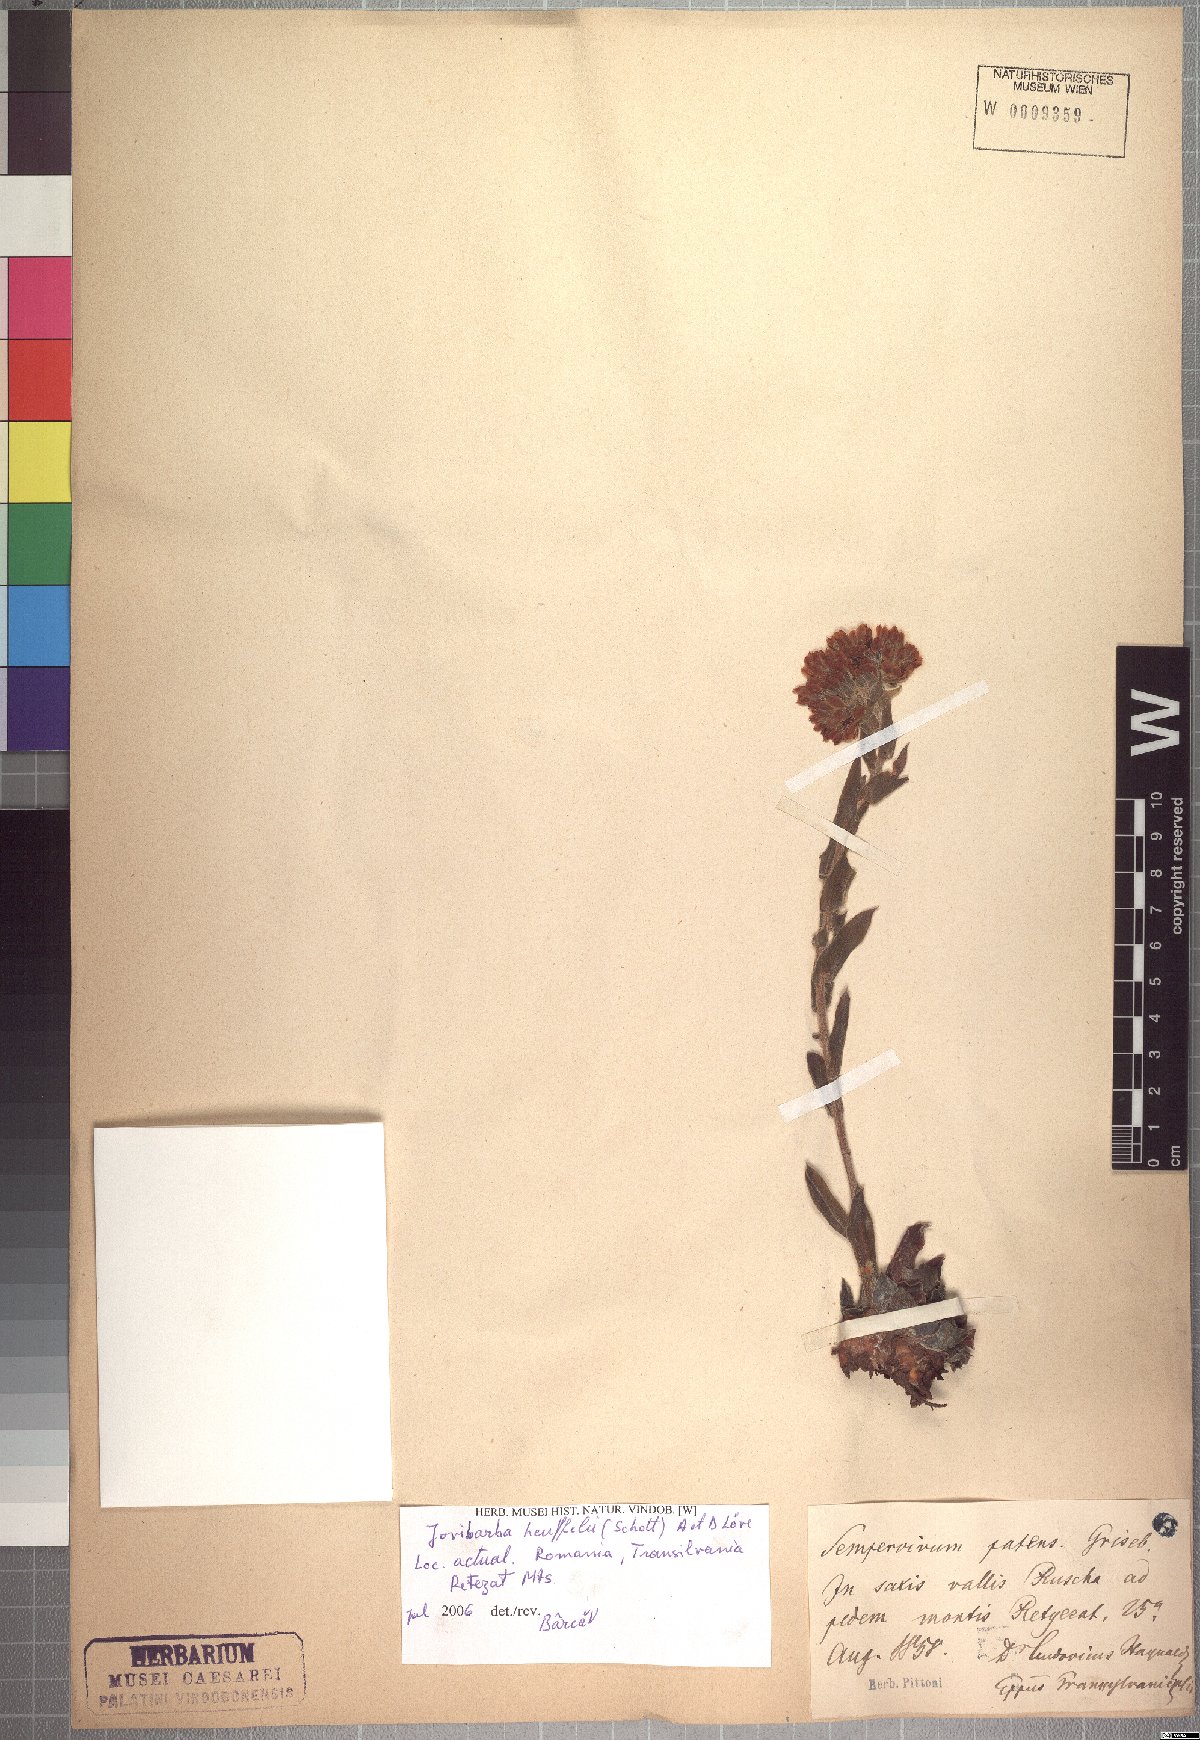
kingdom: Plantae
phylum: Tracheophyta
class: Magnoliopsida
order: Saxifragales
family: Crassulaceae
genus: Sempervivum
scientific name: Sempervivum heuffelii
